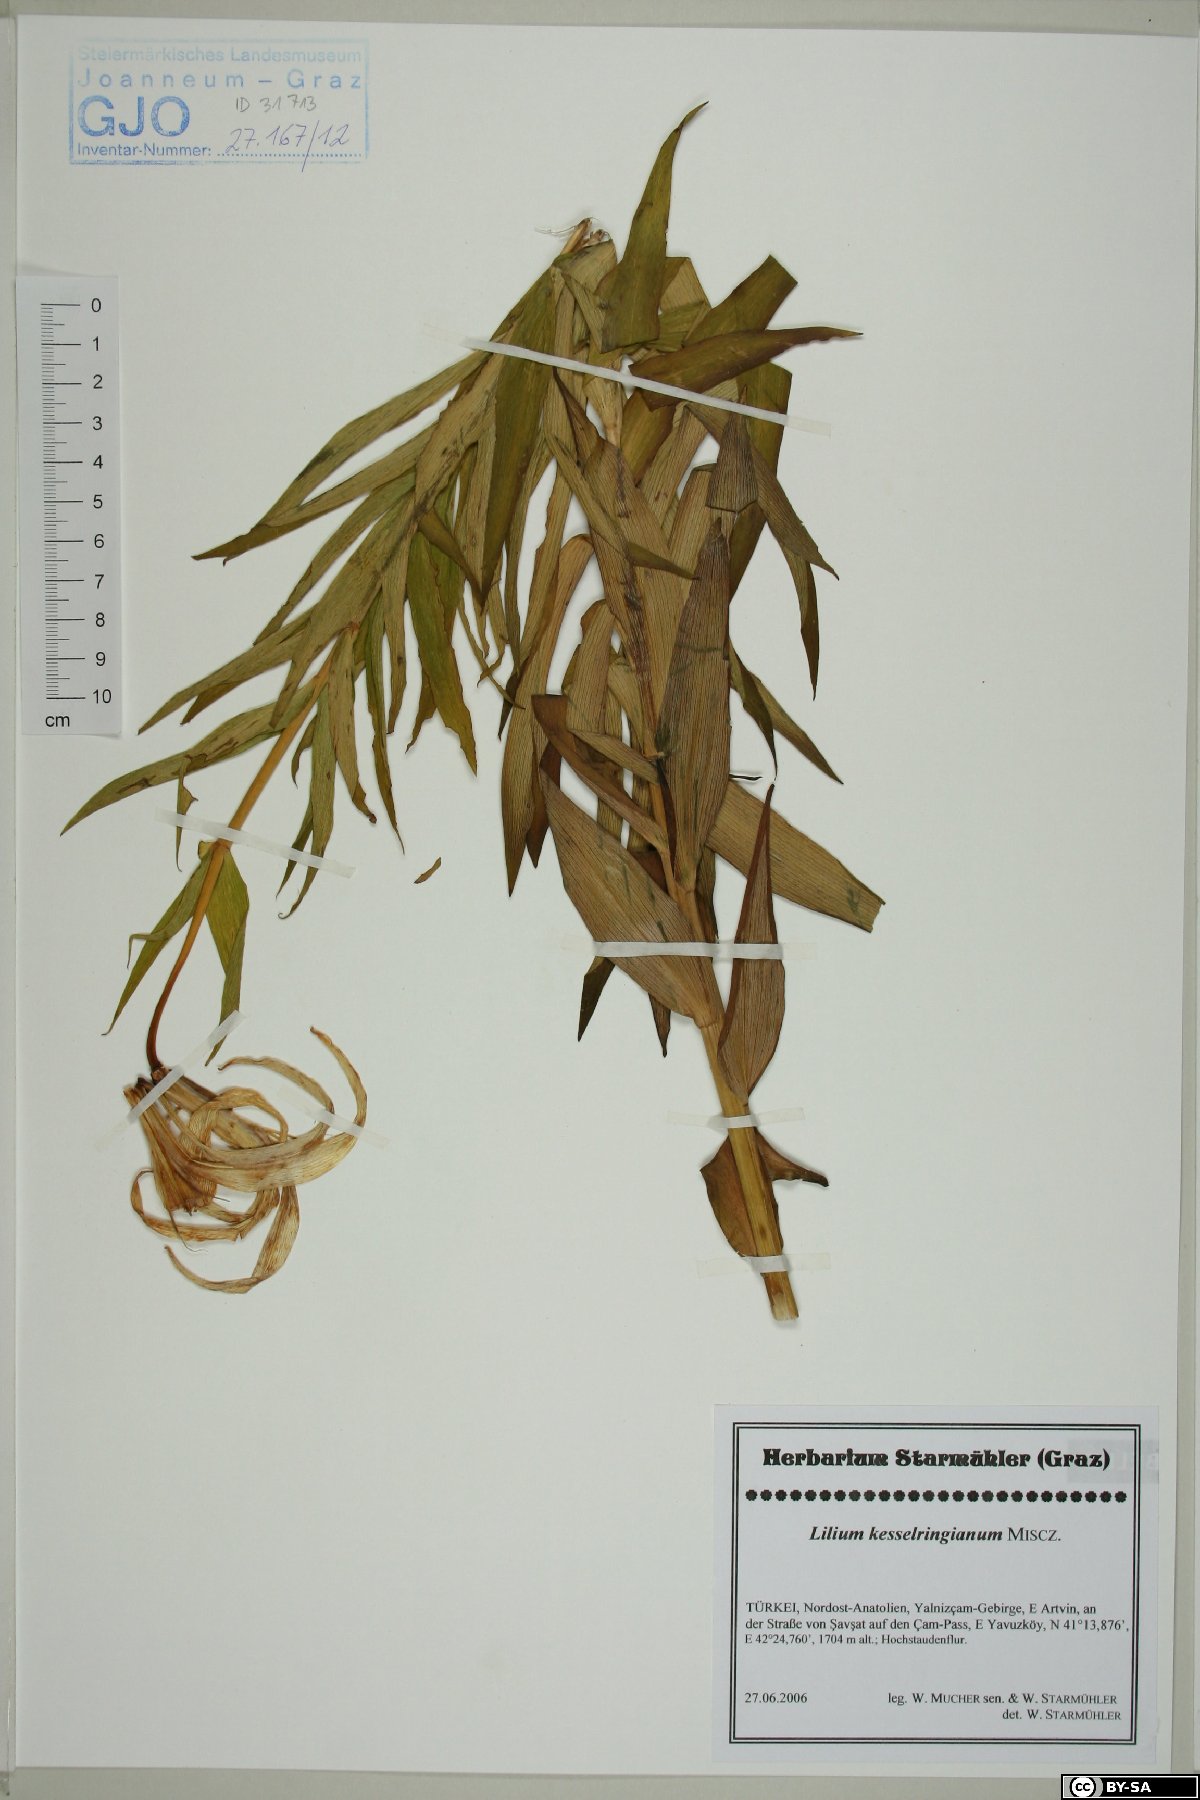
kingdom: Plantae
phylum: Tracheophyta
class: Liliopsida
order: Liliales
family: Liliaceae
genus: Lilium
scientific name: Lilium kesselringianum
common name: Kesselring lily
